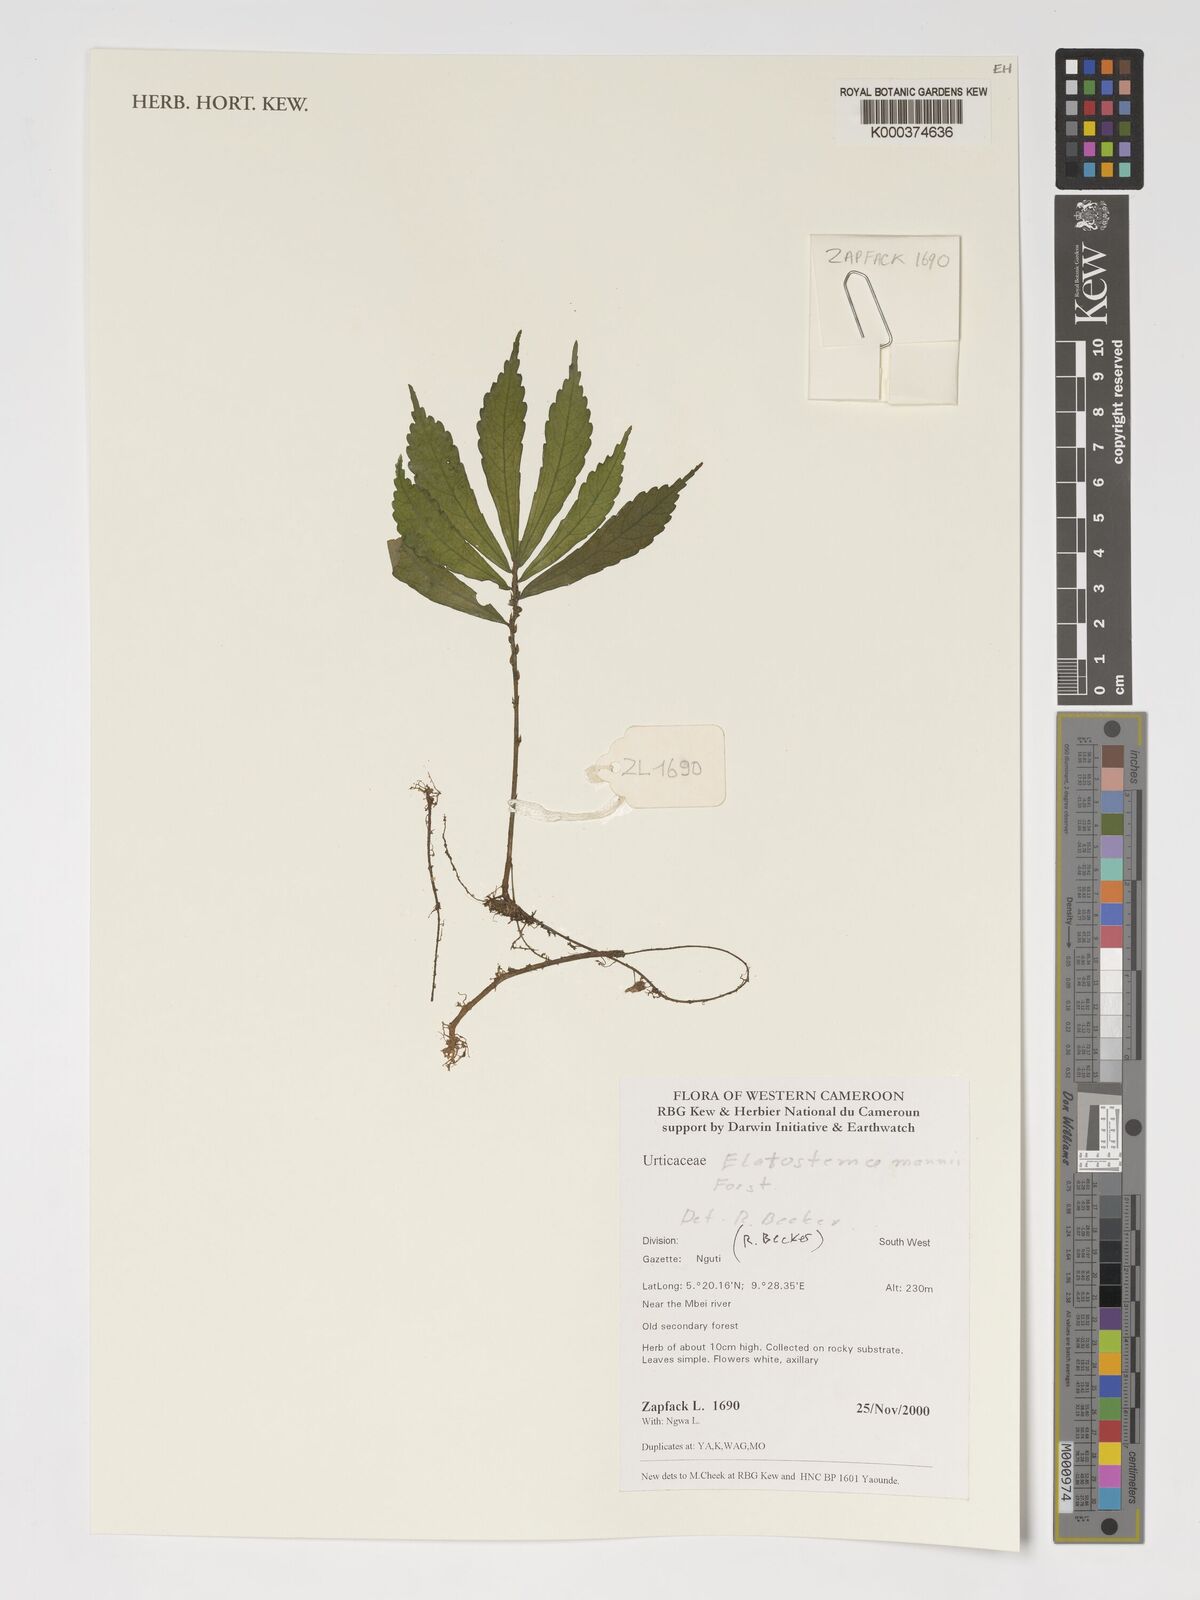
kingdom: Plantae
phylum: Tracheophyta
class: Magnoliopsida
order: Rosales
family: Urticaceae
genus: Elatostema
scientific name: Elatostema mannii
